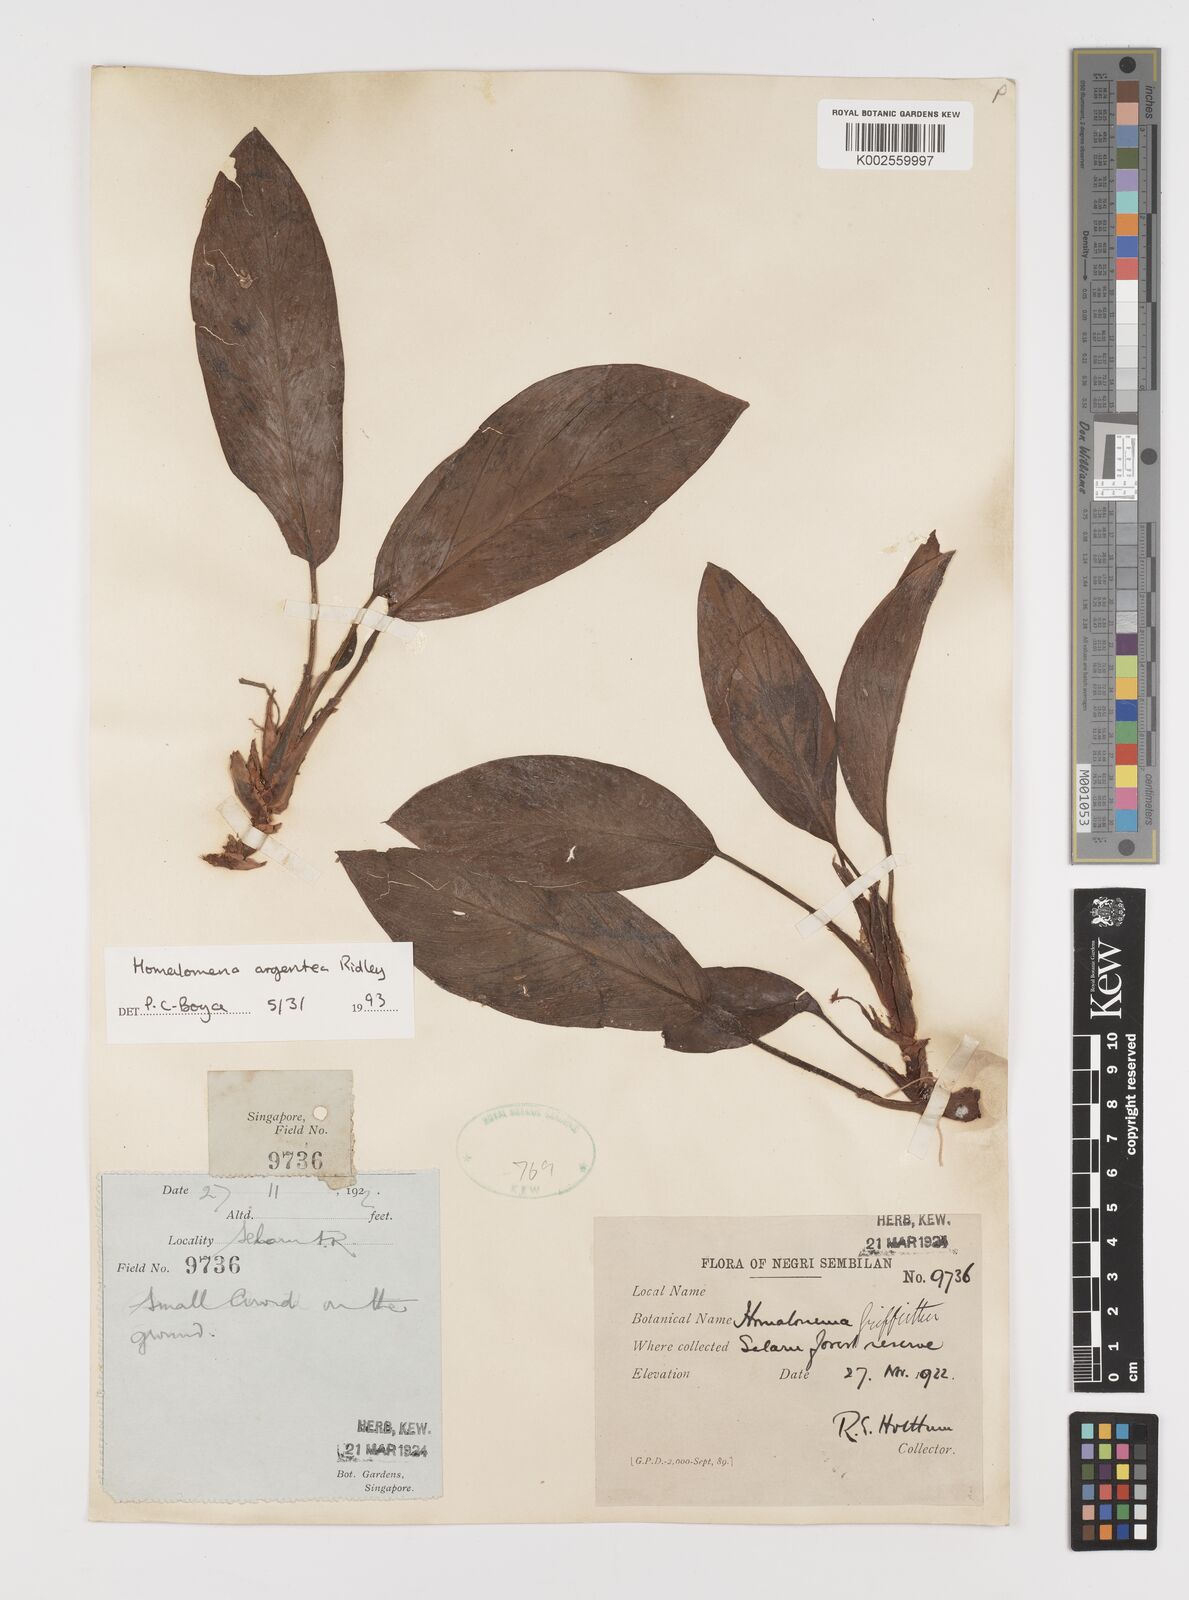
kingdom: Plantae
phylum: Tracheophyta
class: Liliopsida
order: Alismatales
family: Araceae
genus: Homalomena
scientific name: Homalomena argentea
